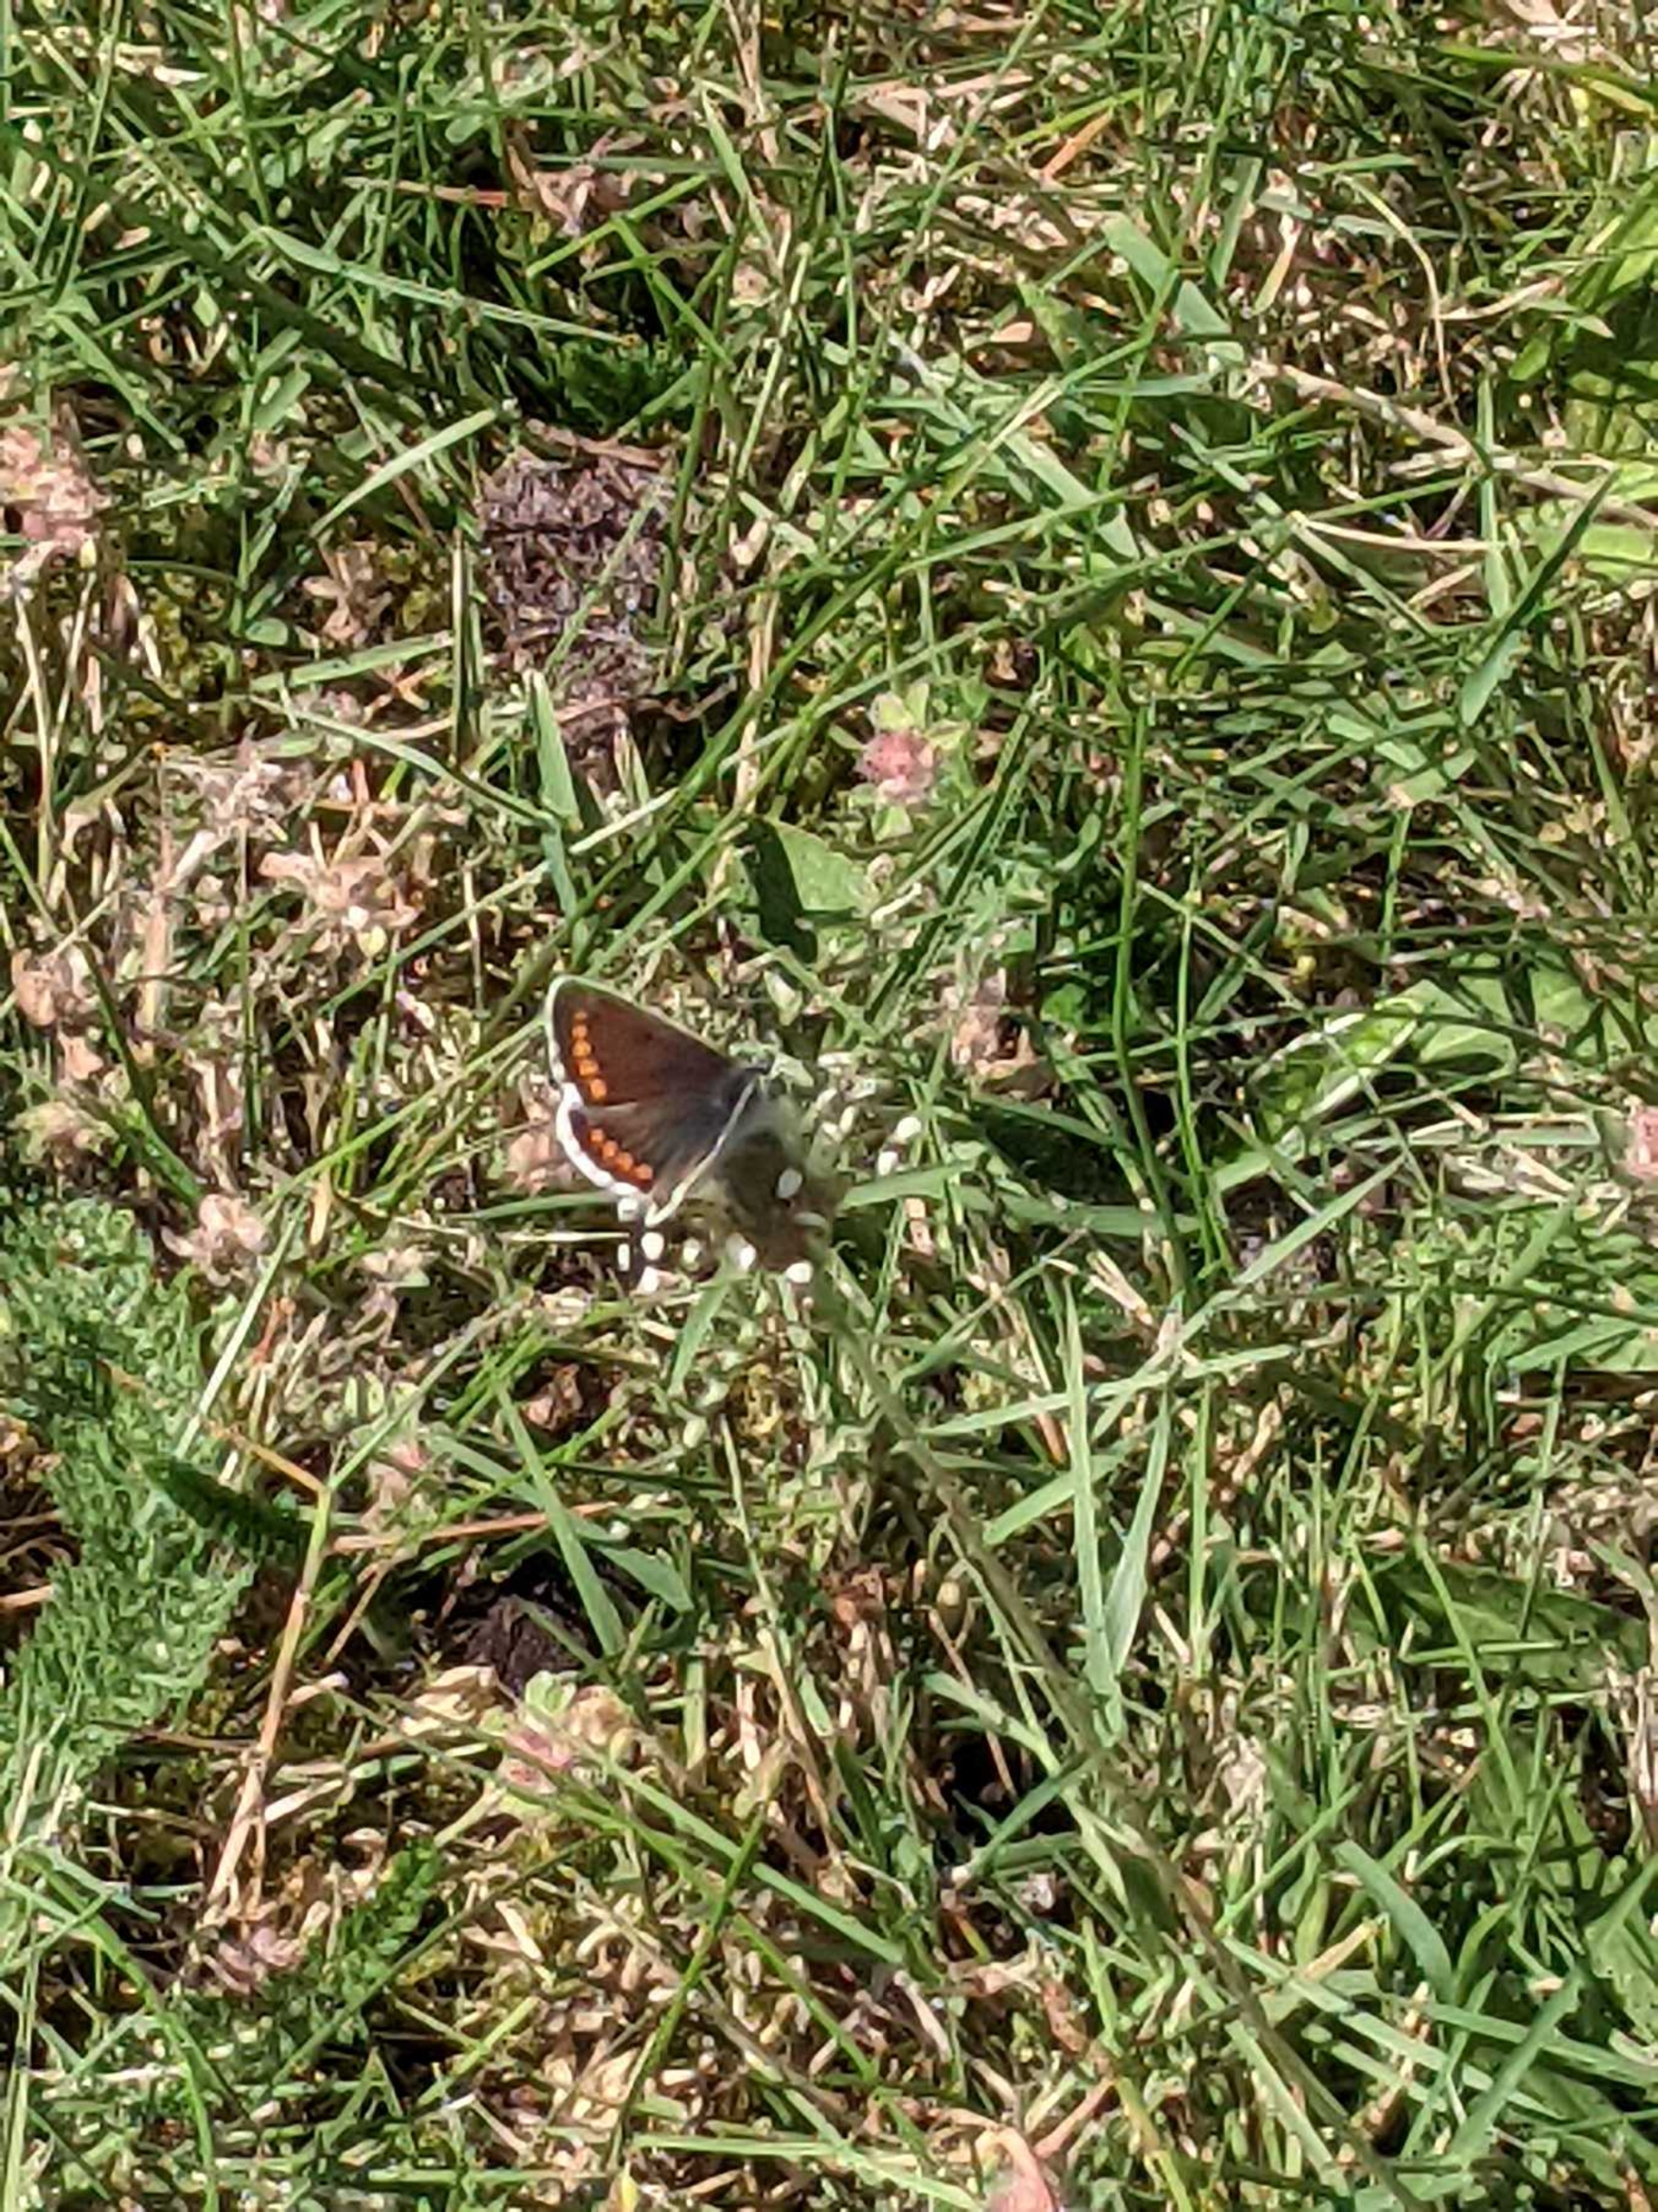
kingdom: Animalia
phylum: Arthropoda
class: Insecta
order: Lepidoptera
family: Lycaenidae
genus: Aricia
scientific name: Aricia agestis
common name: Rødplettet blåfugl
